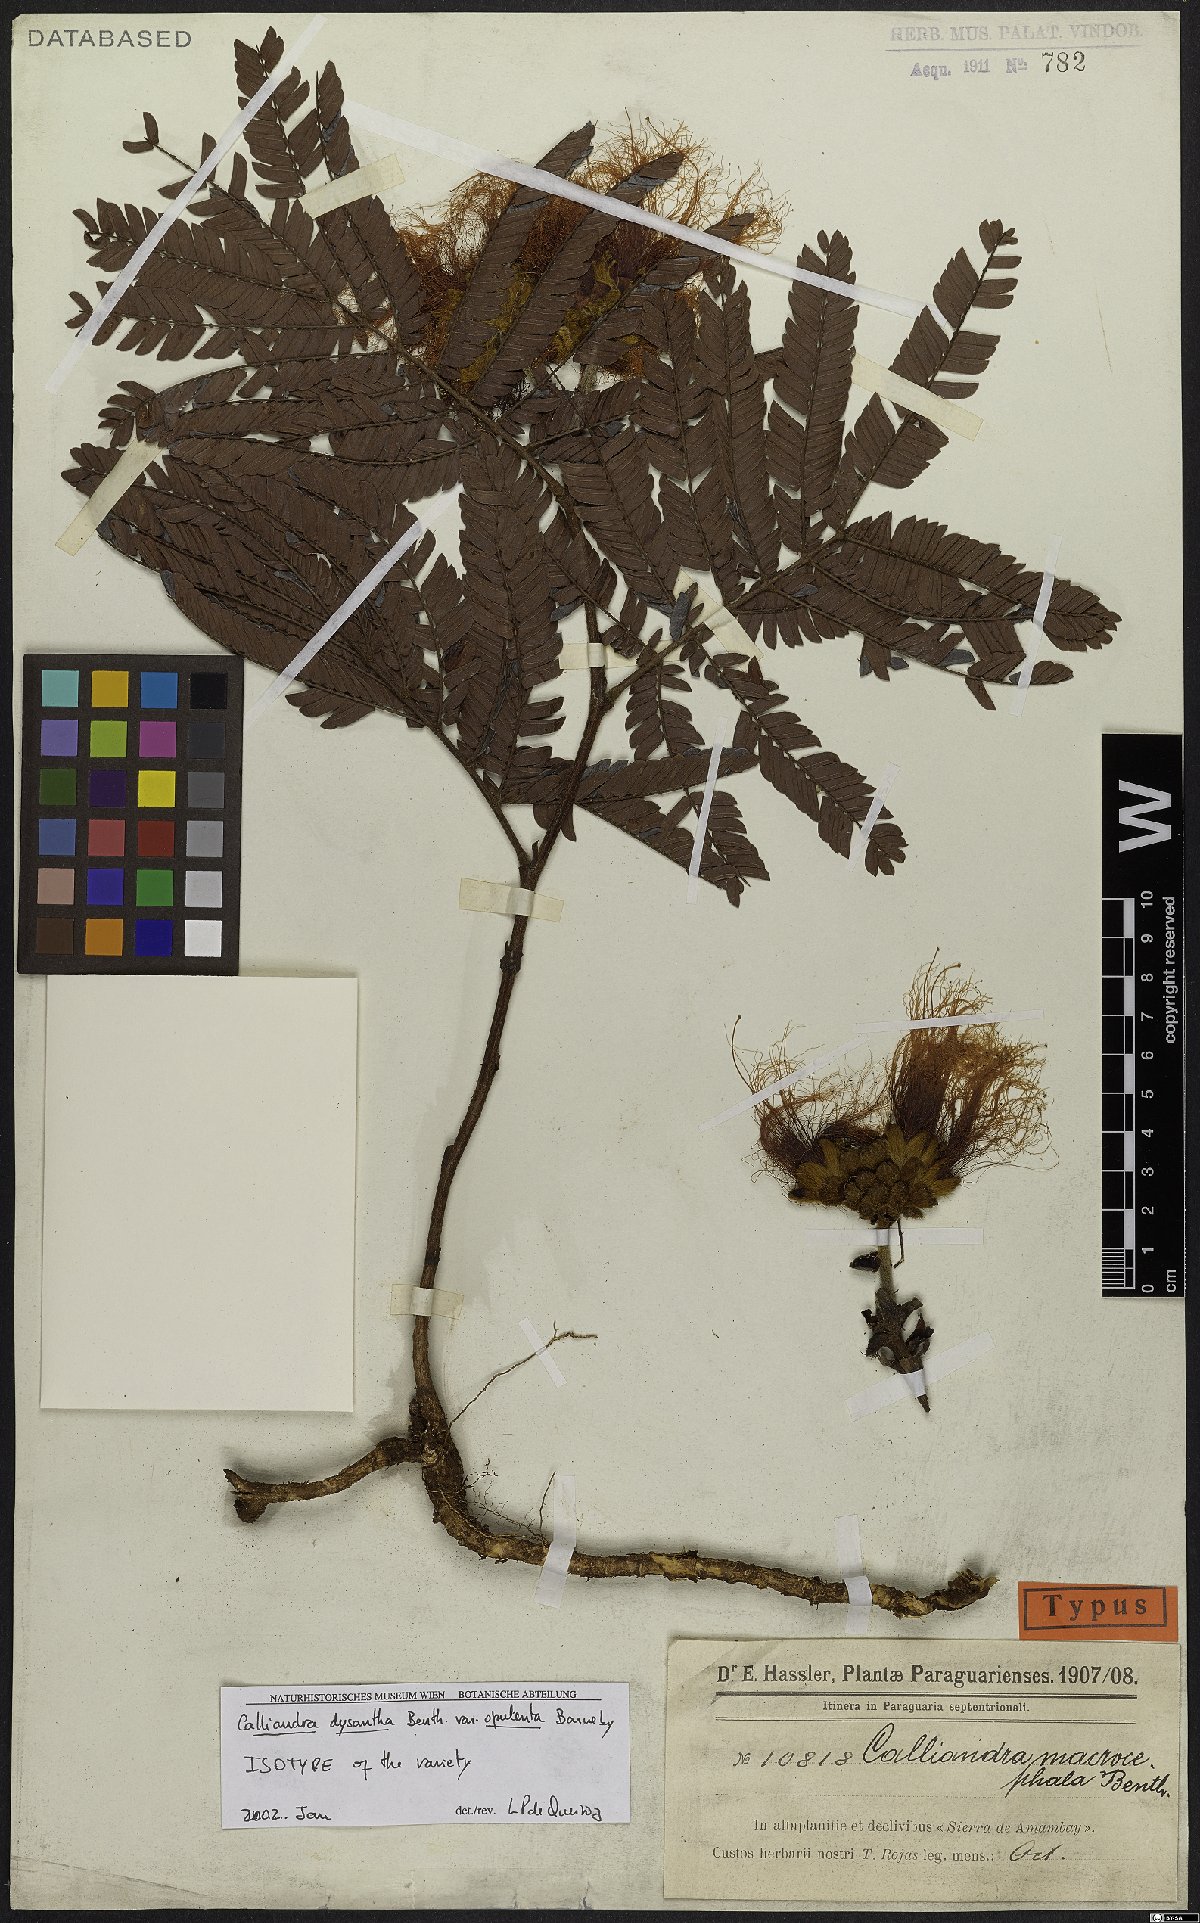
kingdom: Plantae
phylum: Tracheophyta
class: Magnoliopsida
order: Fabales
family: Fabaceae
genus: Calliandra
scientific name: Calliandra dysantha
